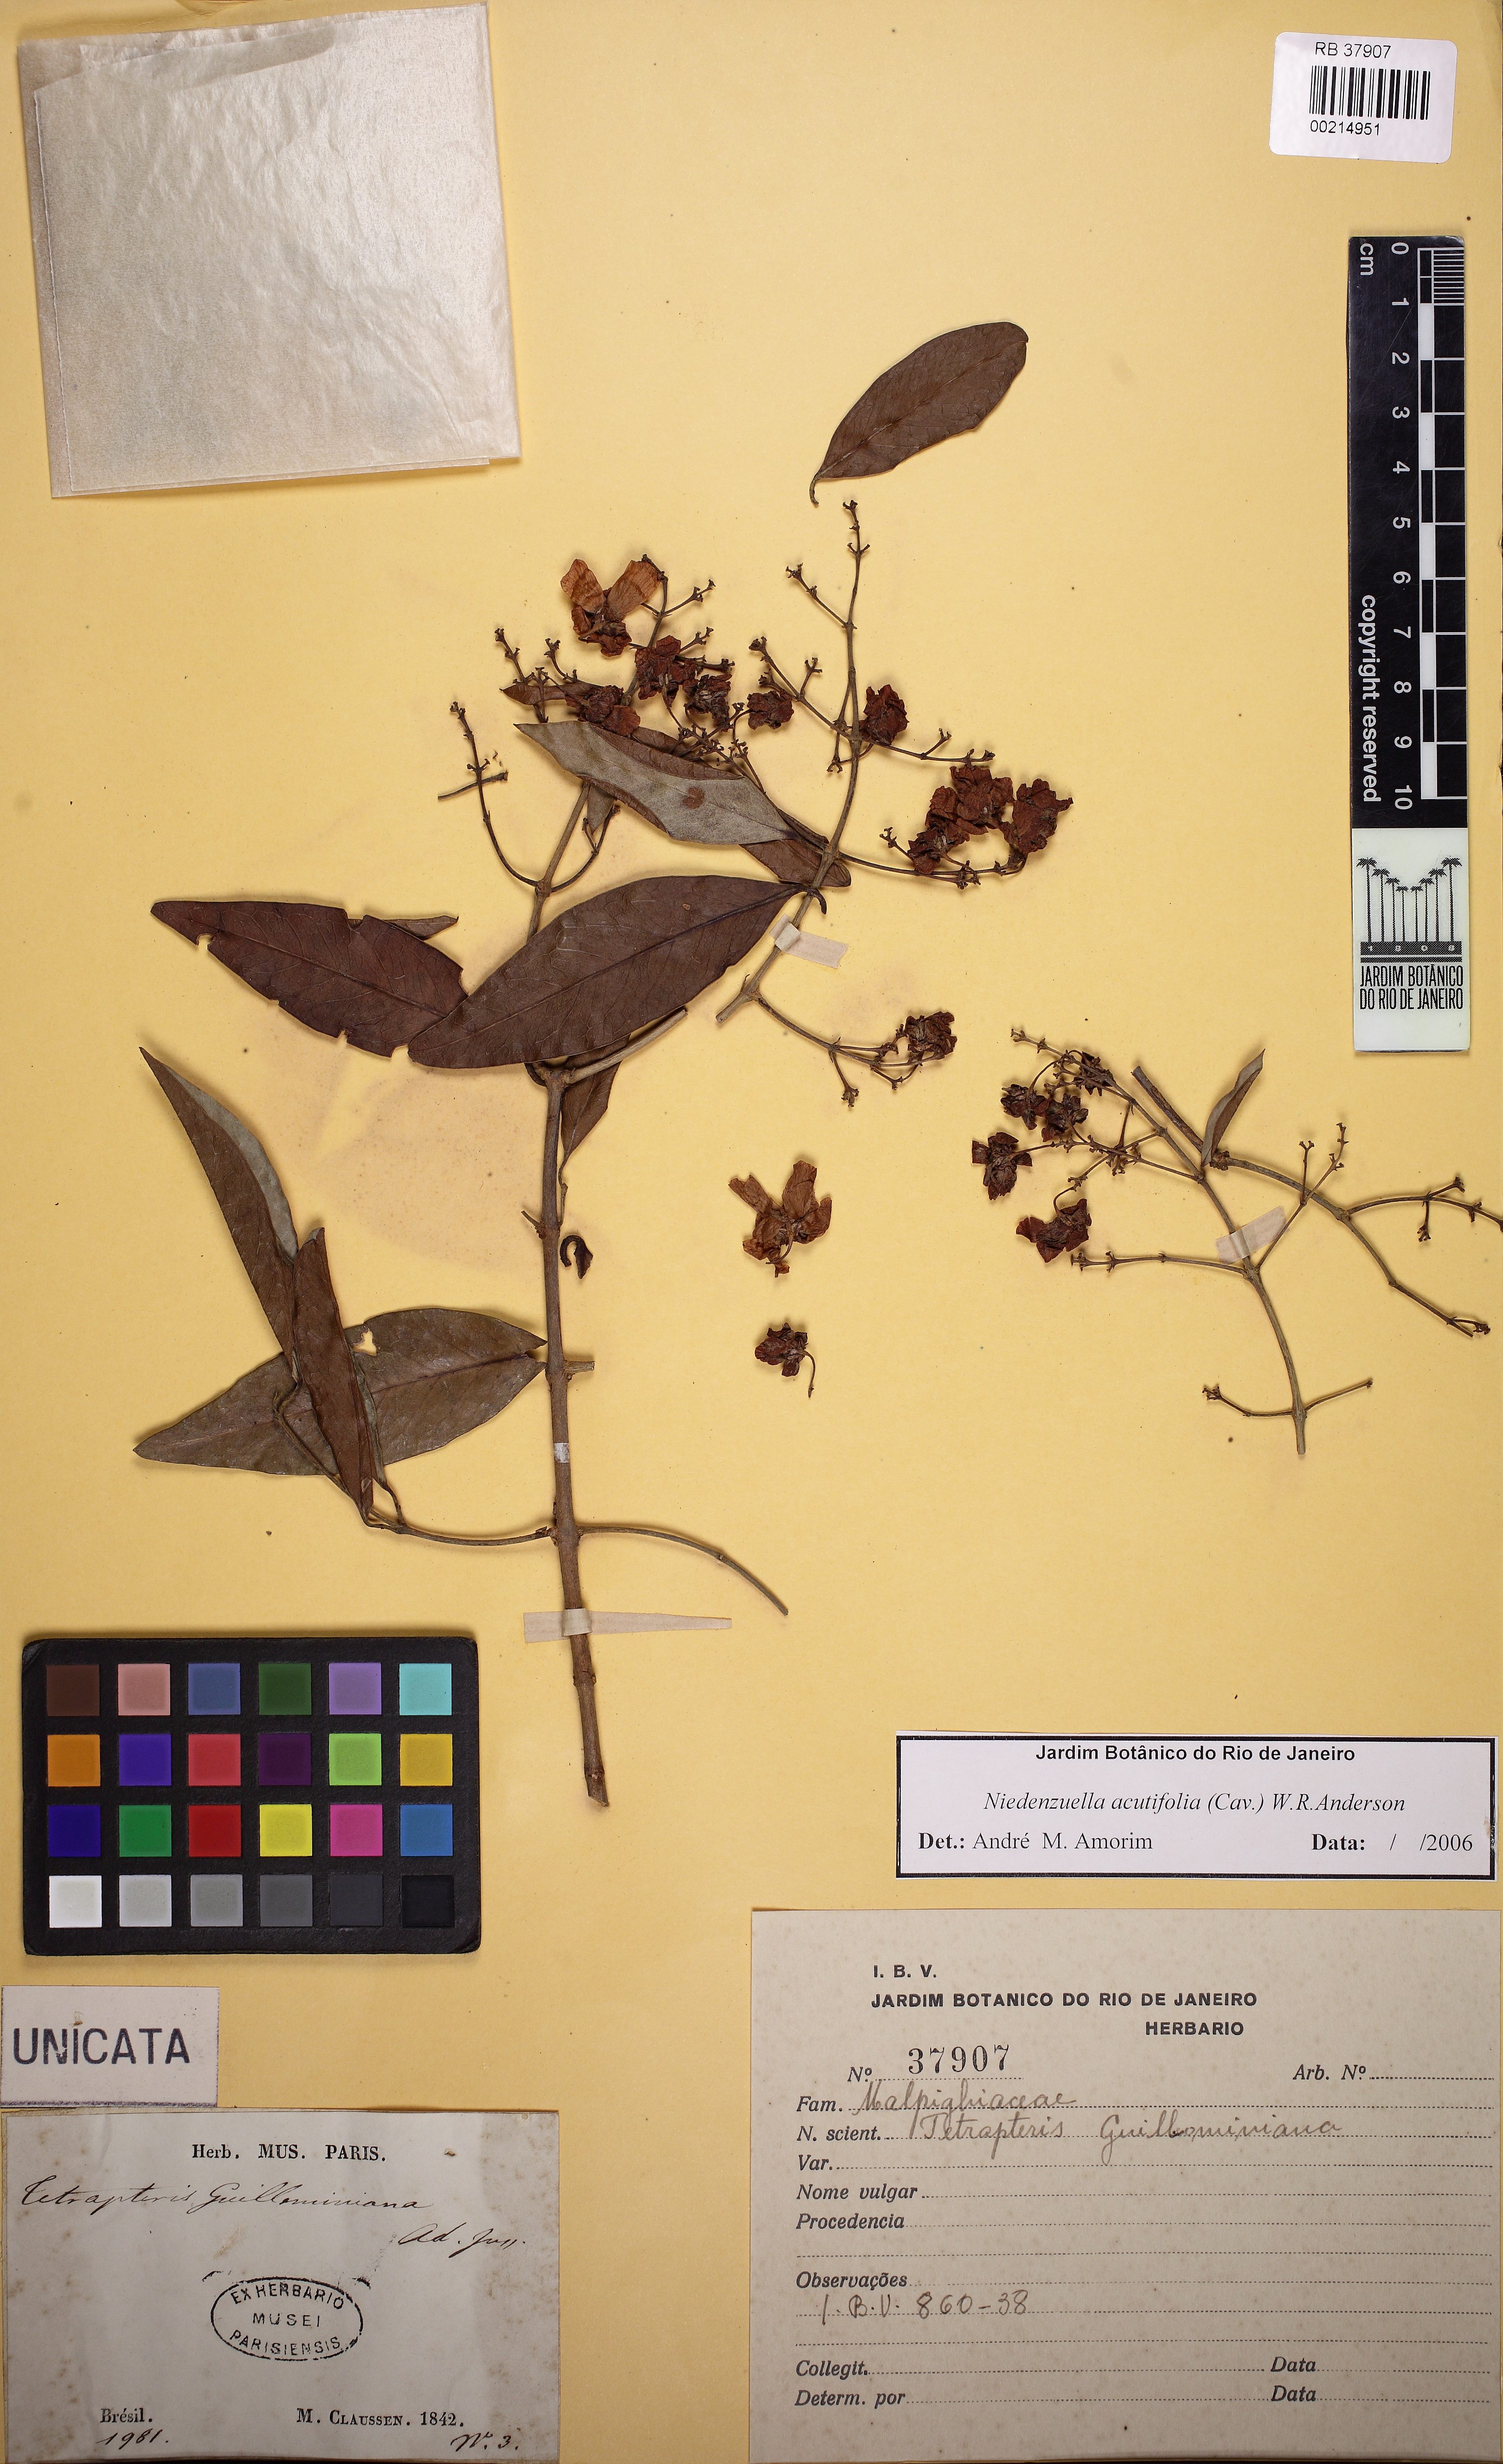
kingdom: Plantae
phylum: Tracheophyta
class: Magnoliopsida
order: Malpighiales
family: Malpighiaceae
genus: Niedenzuella
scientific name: Niedenzuella acutifolia
